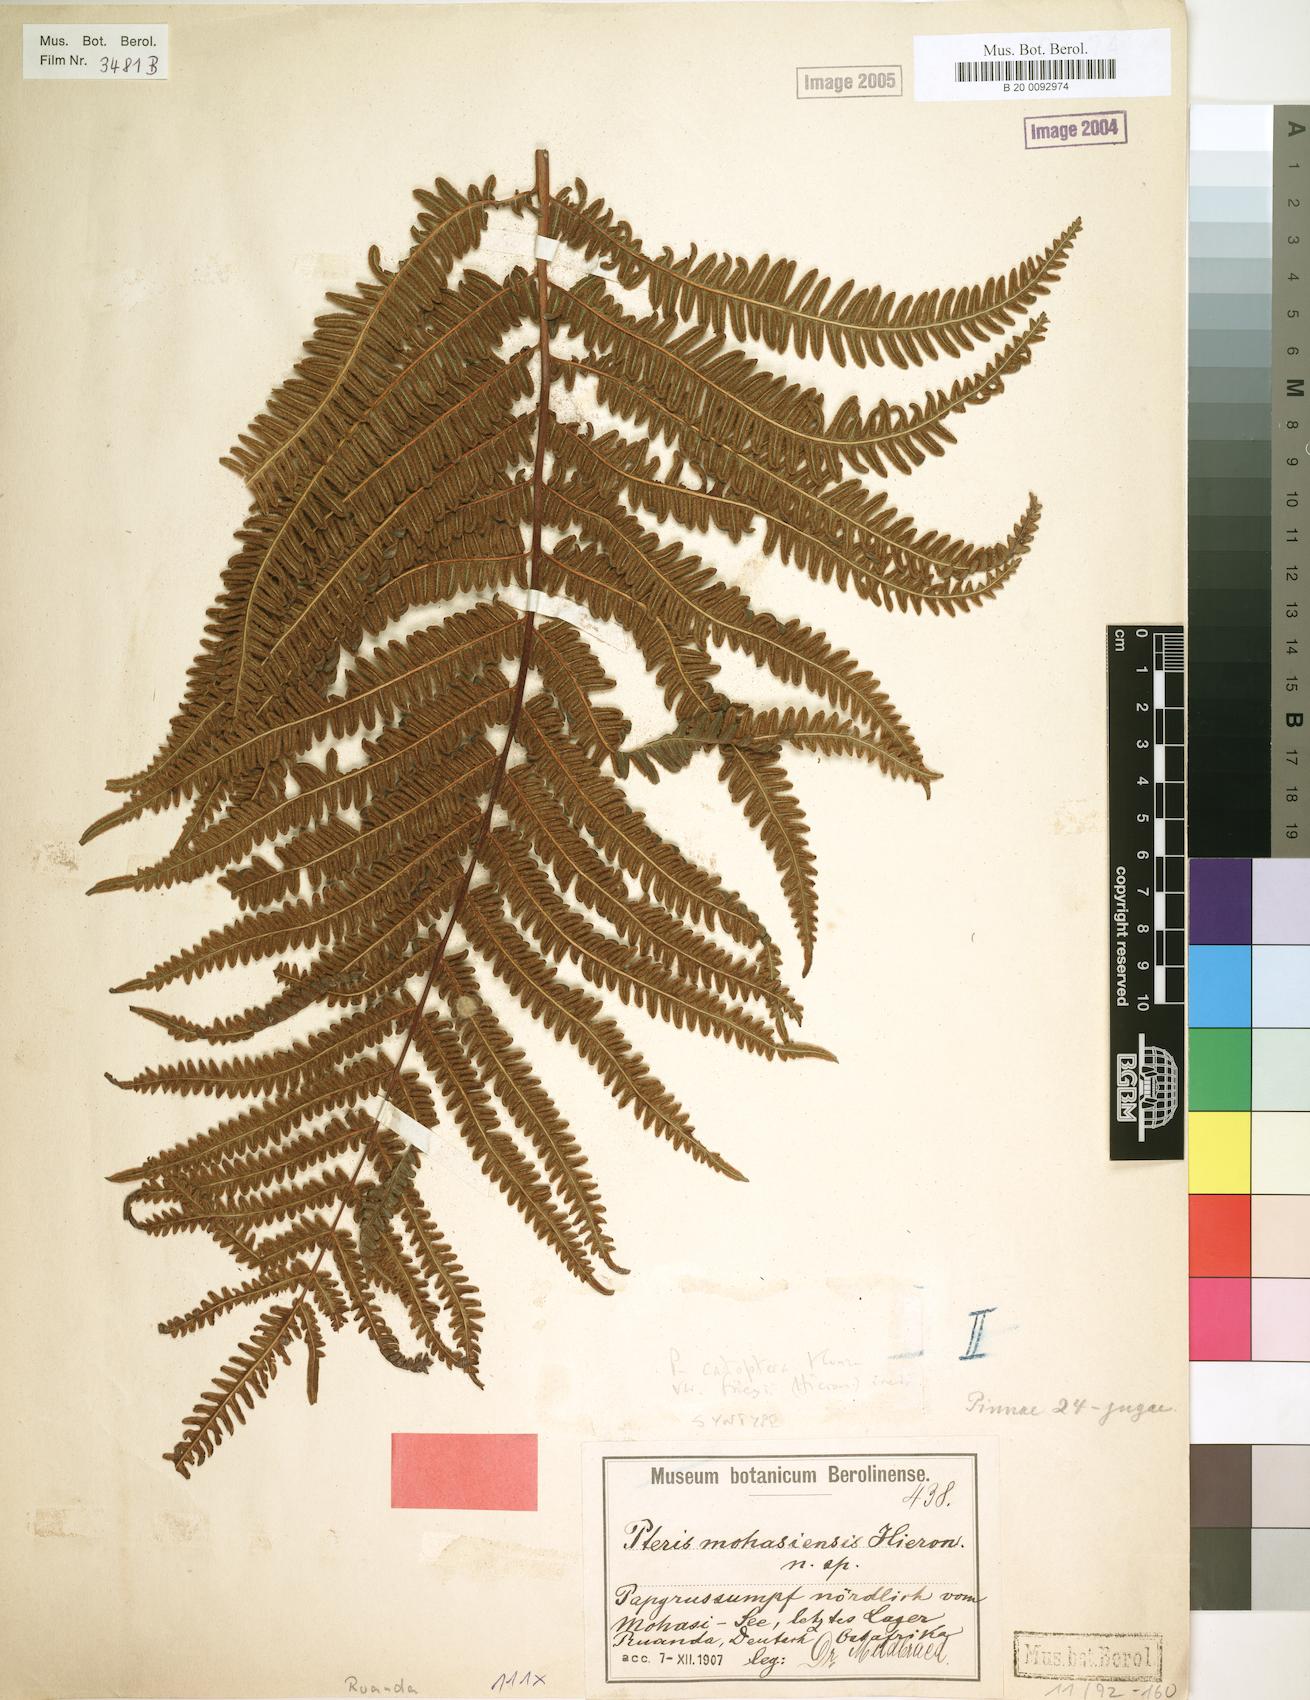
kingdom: Plantae
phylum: Tracheophyta
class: Polypodiopsida
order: Polypodiales
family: Pteridaceae
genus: Pteris
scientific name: Pteris friesii
